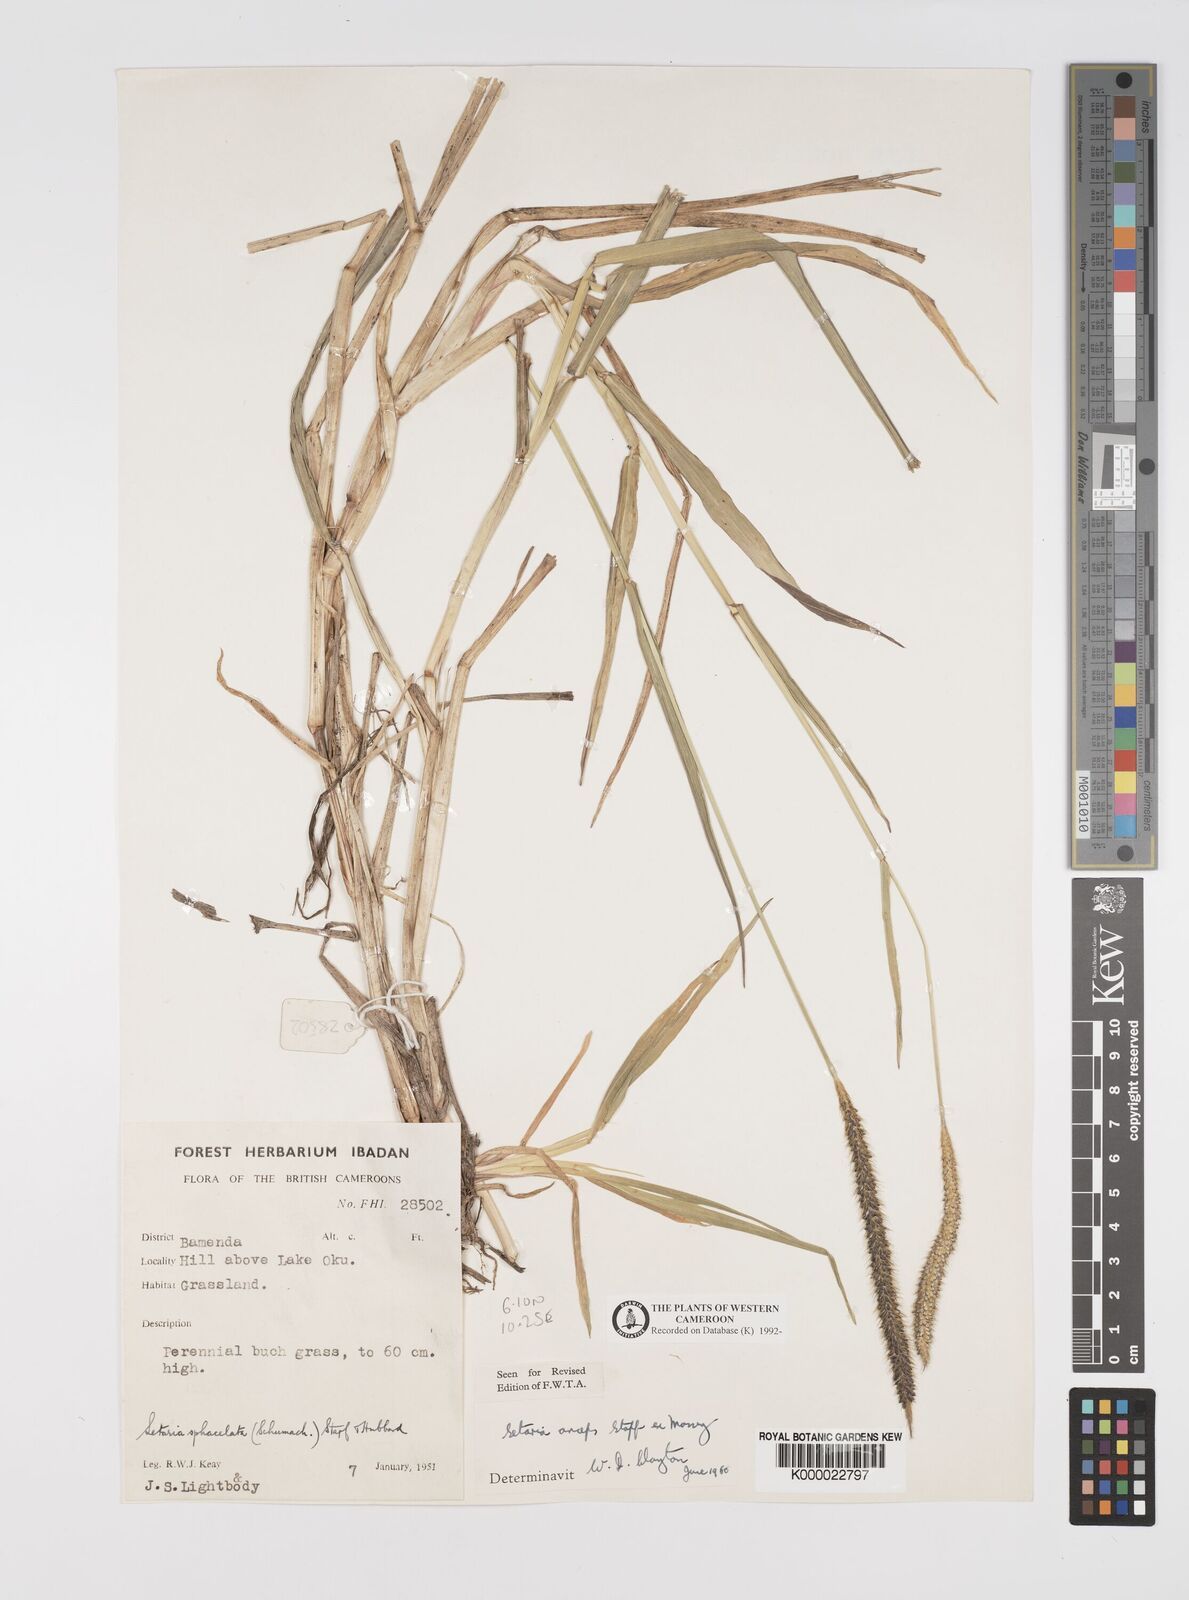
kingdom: Plantae
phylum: Tracheophyta
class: Liliopsida
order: Poales
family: Poaceae
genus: Setaria
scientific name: Setaria sphacelata
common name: African bristlegrass
